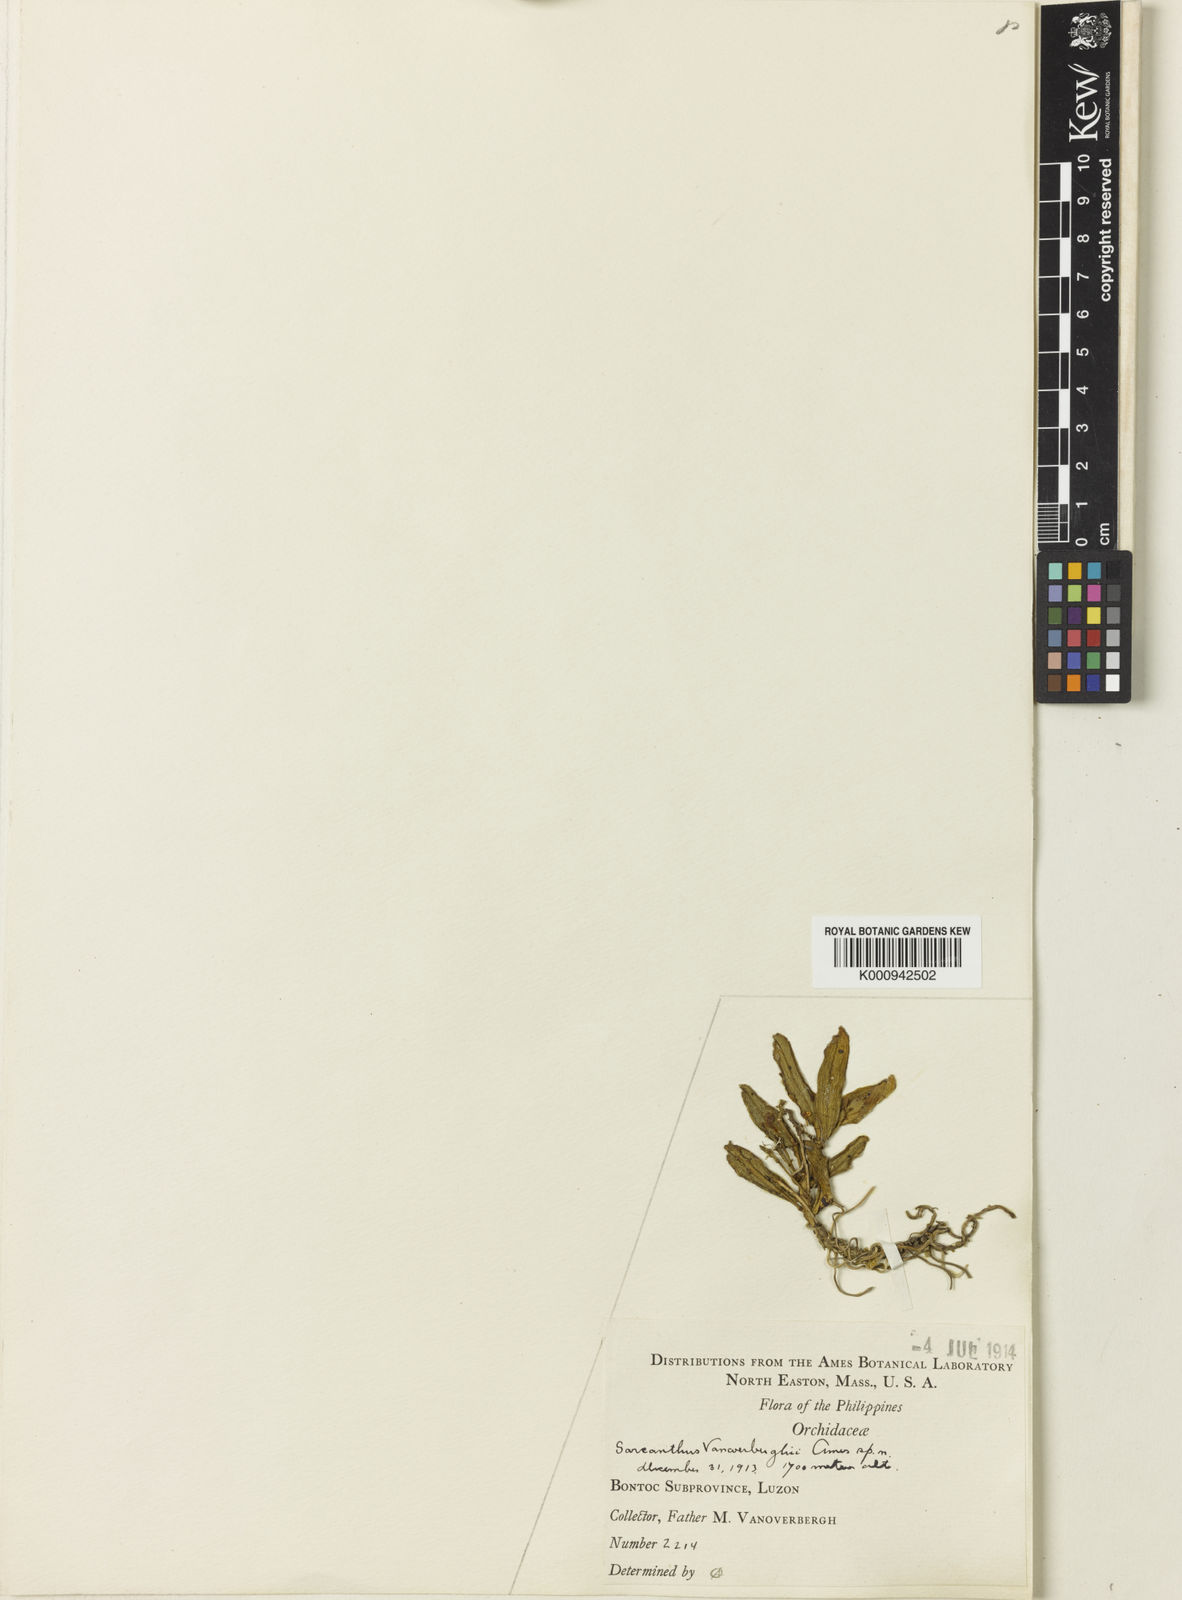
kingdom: Plantae
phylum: Tracheophyta
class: Liliopsida
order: Asparagales
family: Orchidaceae
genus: Hymenorchis
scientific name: Hymenorchis vanoverberghii
